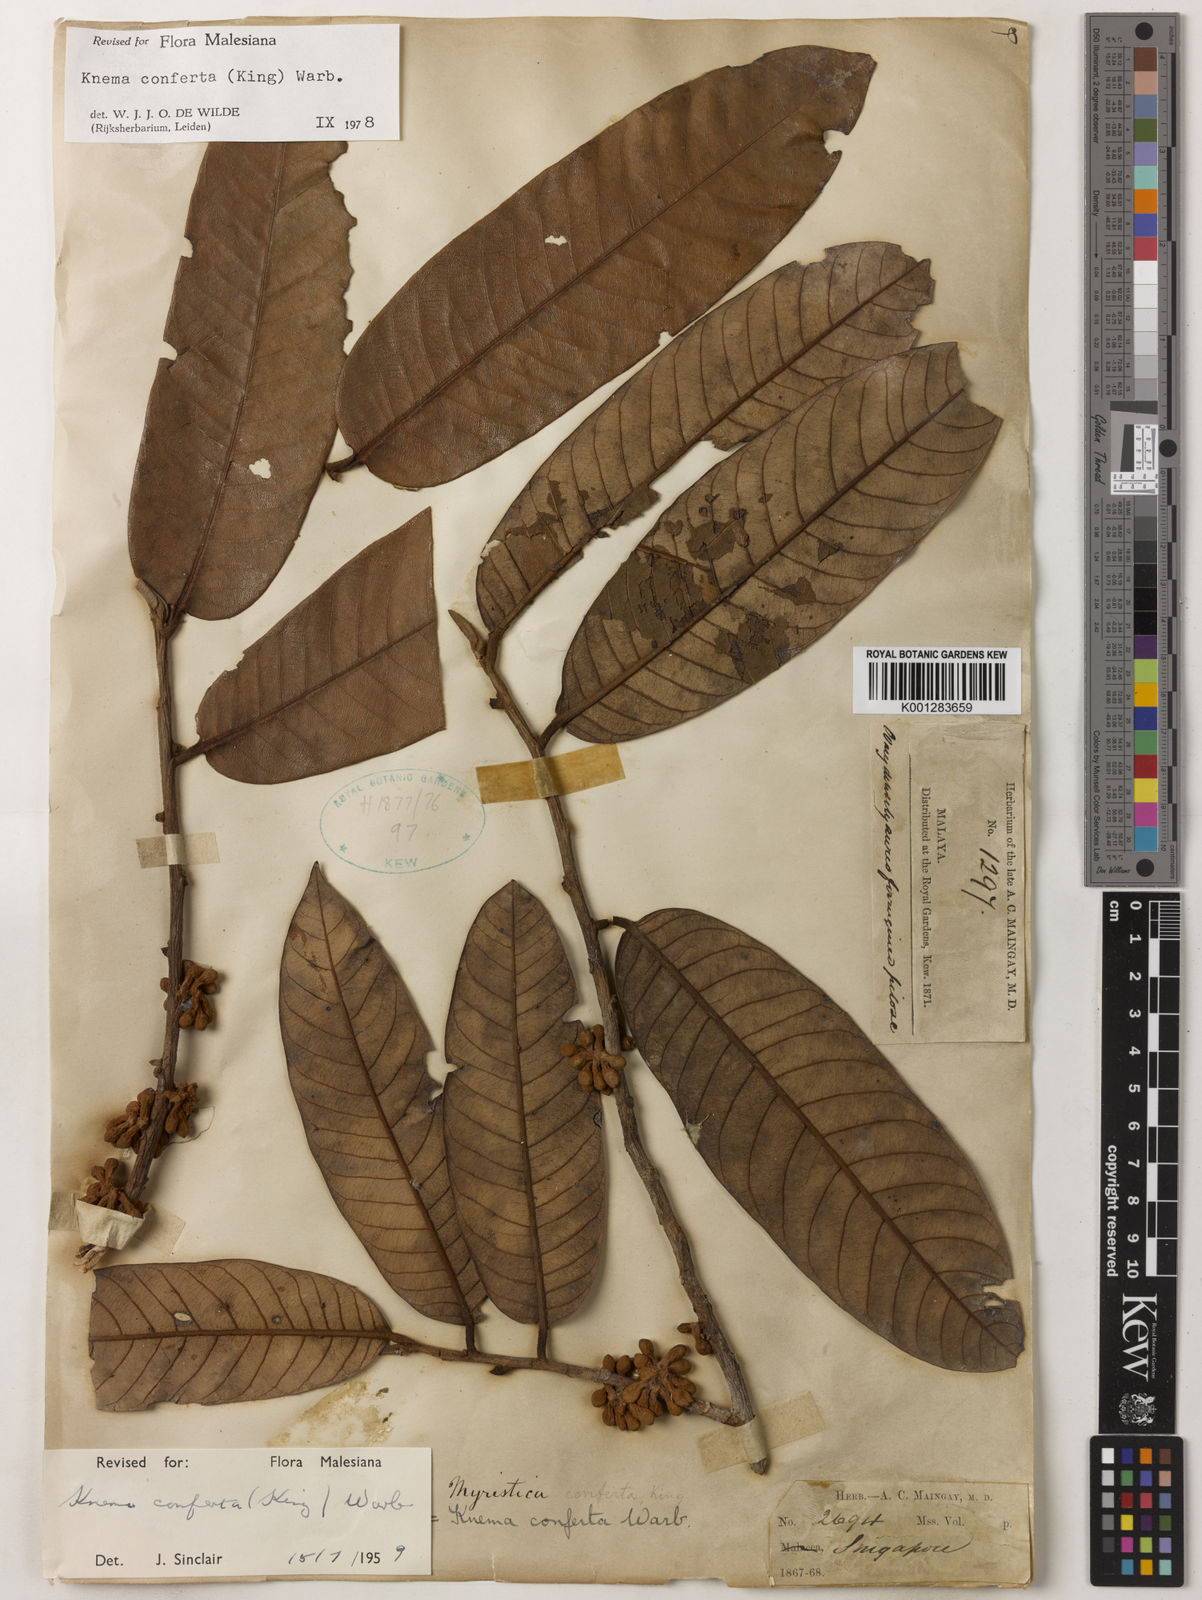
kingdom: Plantae
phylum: Tracheophyta
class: Magnoliopsida
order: Magnoliales
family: Myristicaceae
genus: Knema
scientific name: Knema conferta
